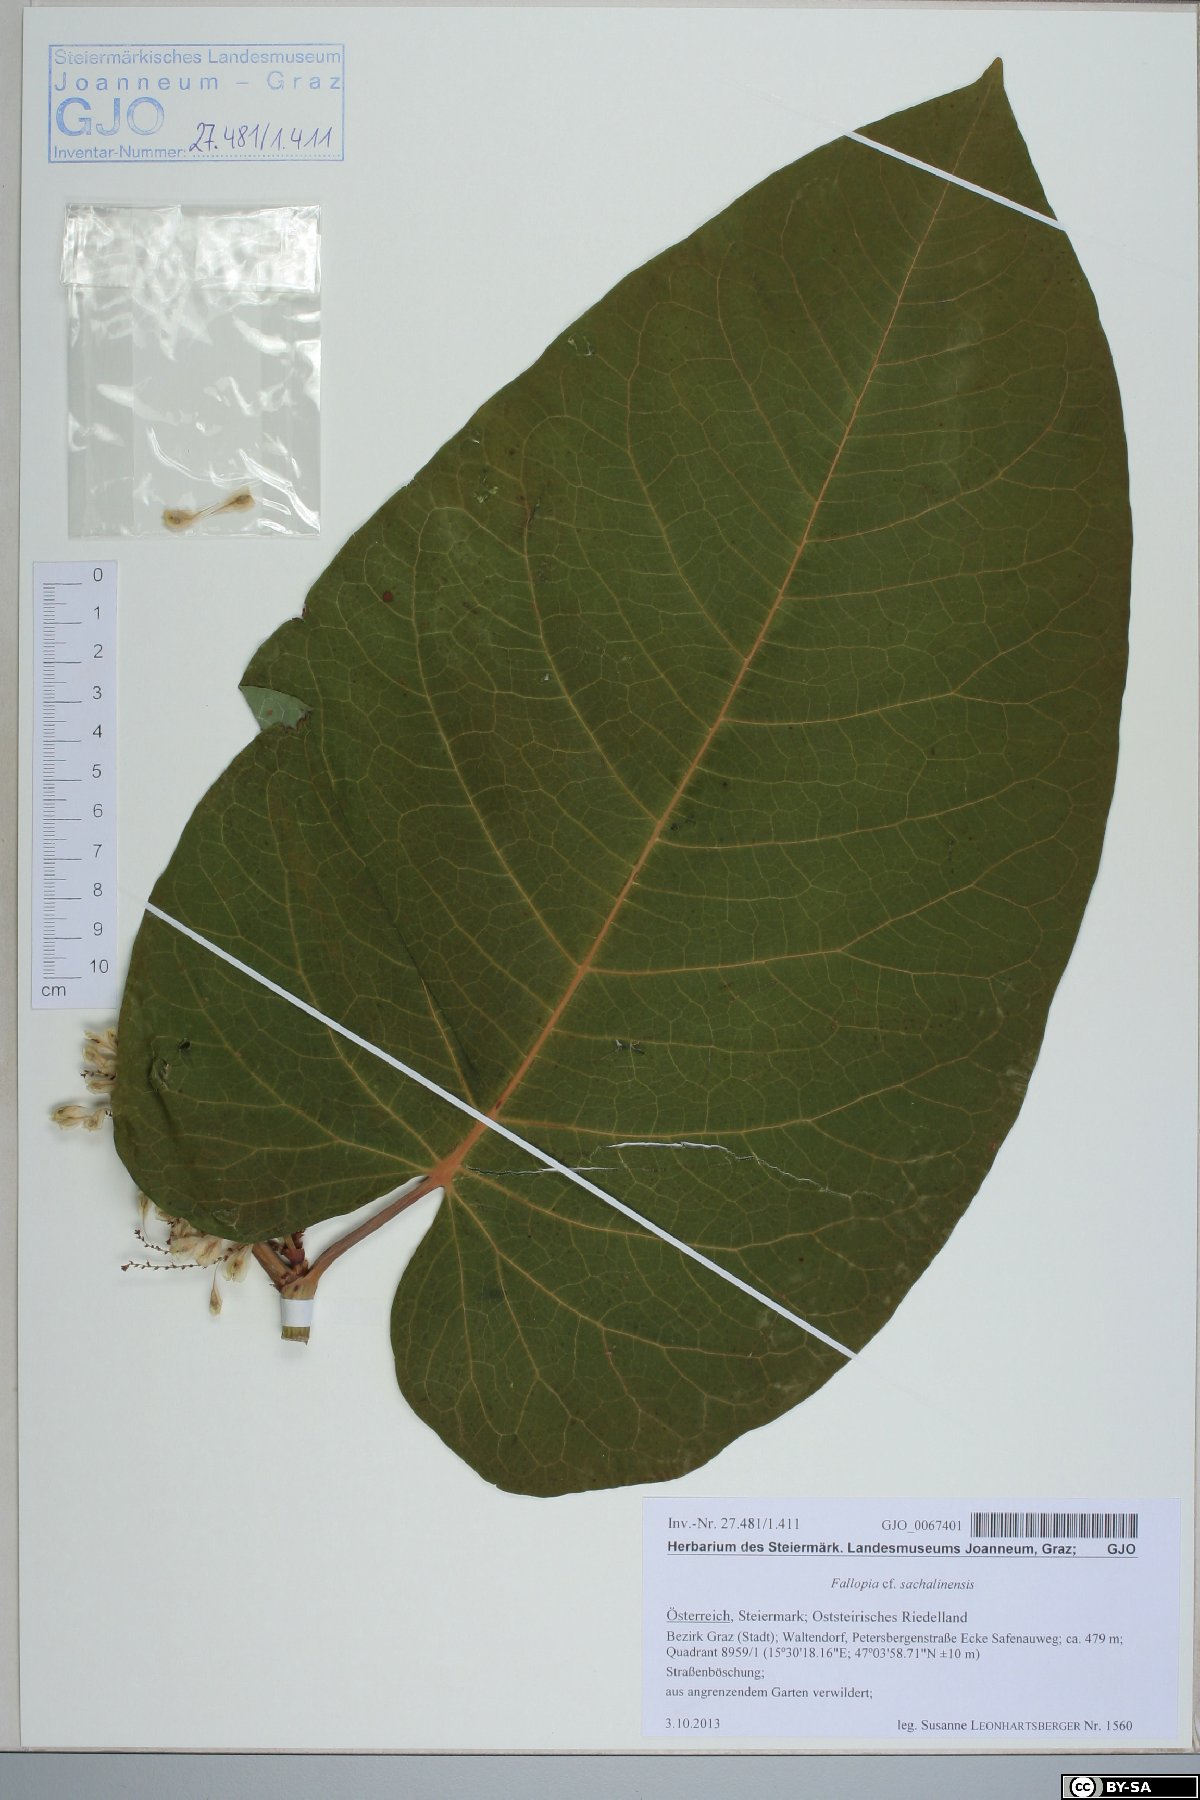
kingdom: Plantae
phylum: Tracheophyta
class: Magnoliopsida
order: Caryophyllales
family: Polygonaceae
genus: Reynoutria
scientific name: Reynoutria sachalinensis
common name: Giant knotweed
